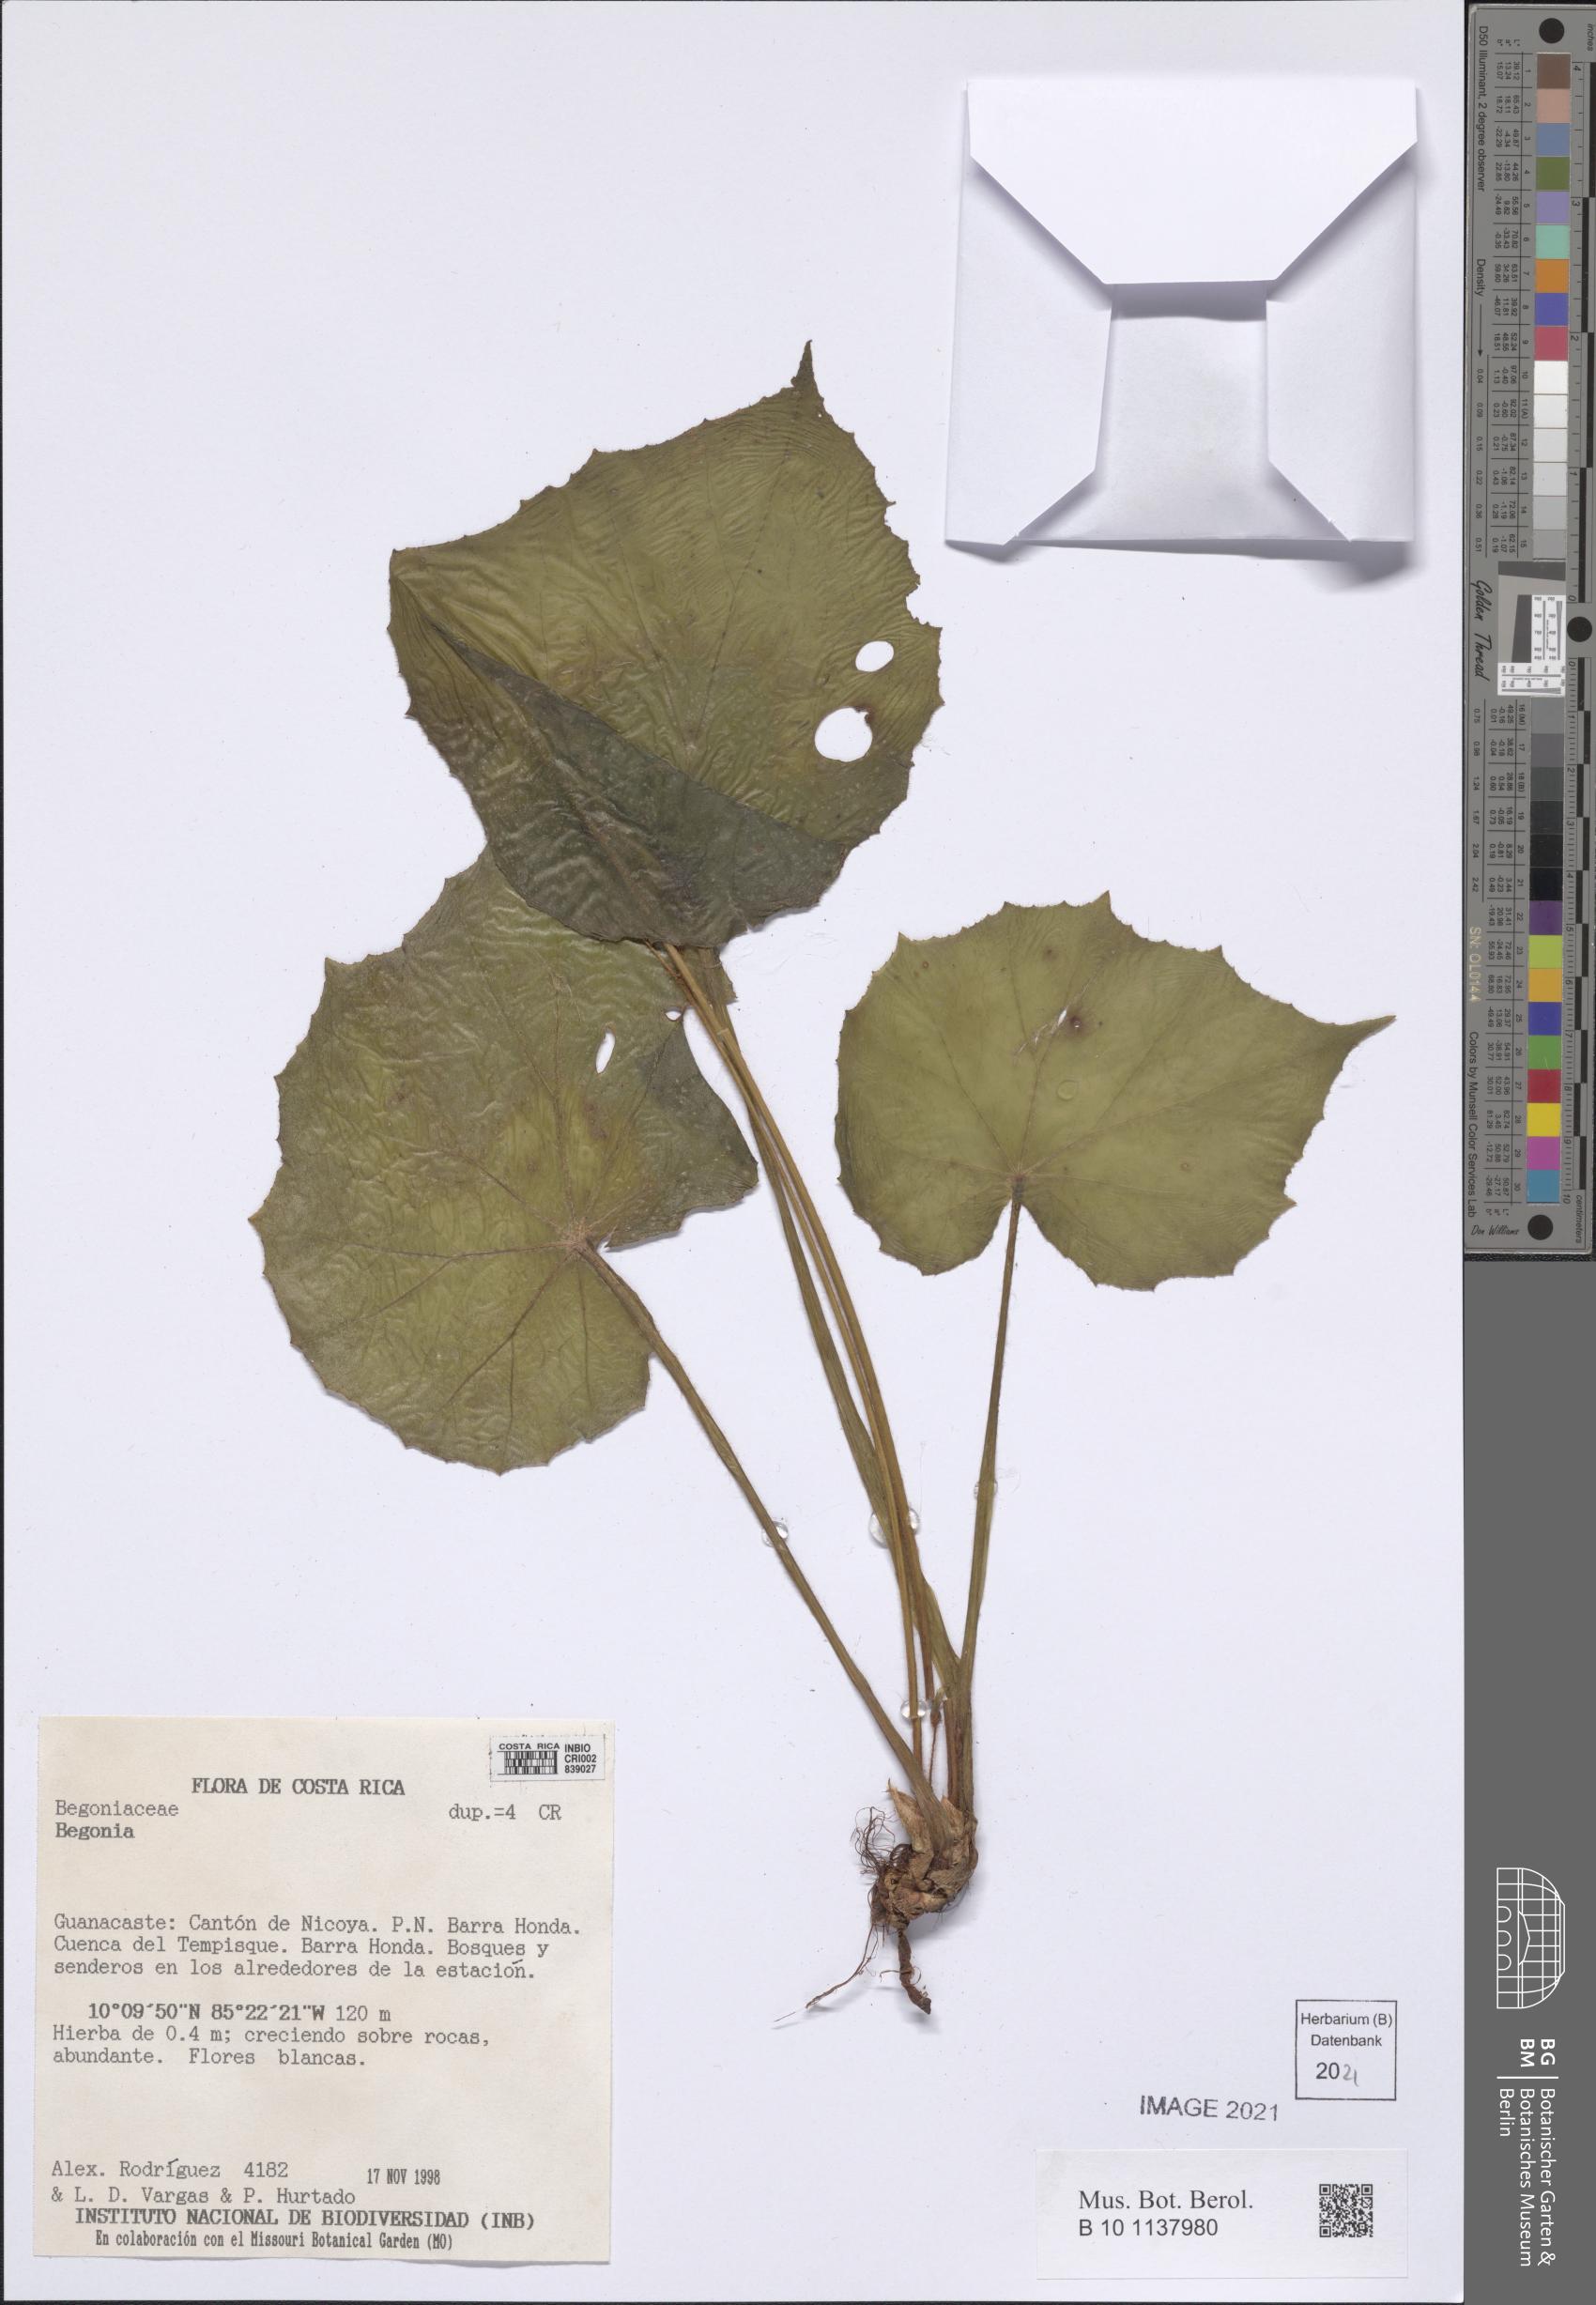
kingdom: Plantae
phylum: Tracheophyta
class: Magnoliopsida
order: Cucurbitales
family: Begoniaceae
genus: Begonia
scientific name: Begonia
